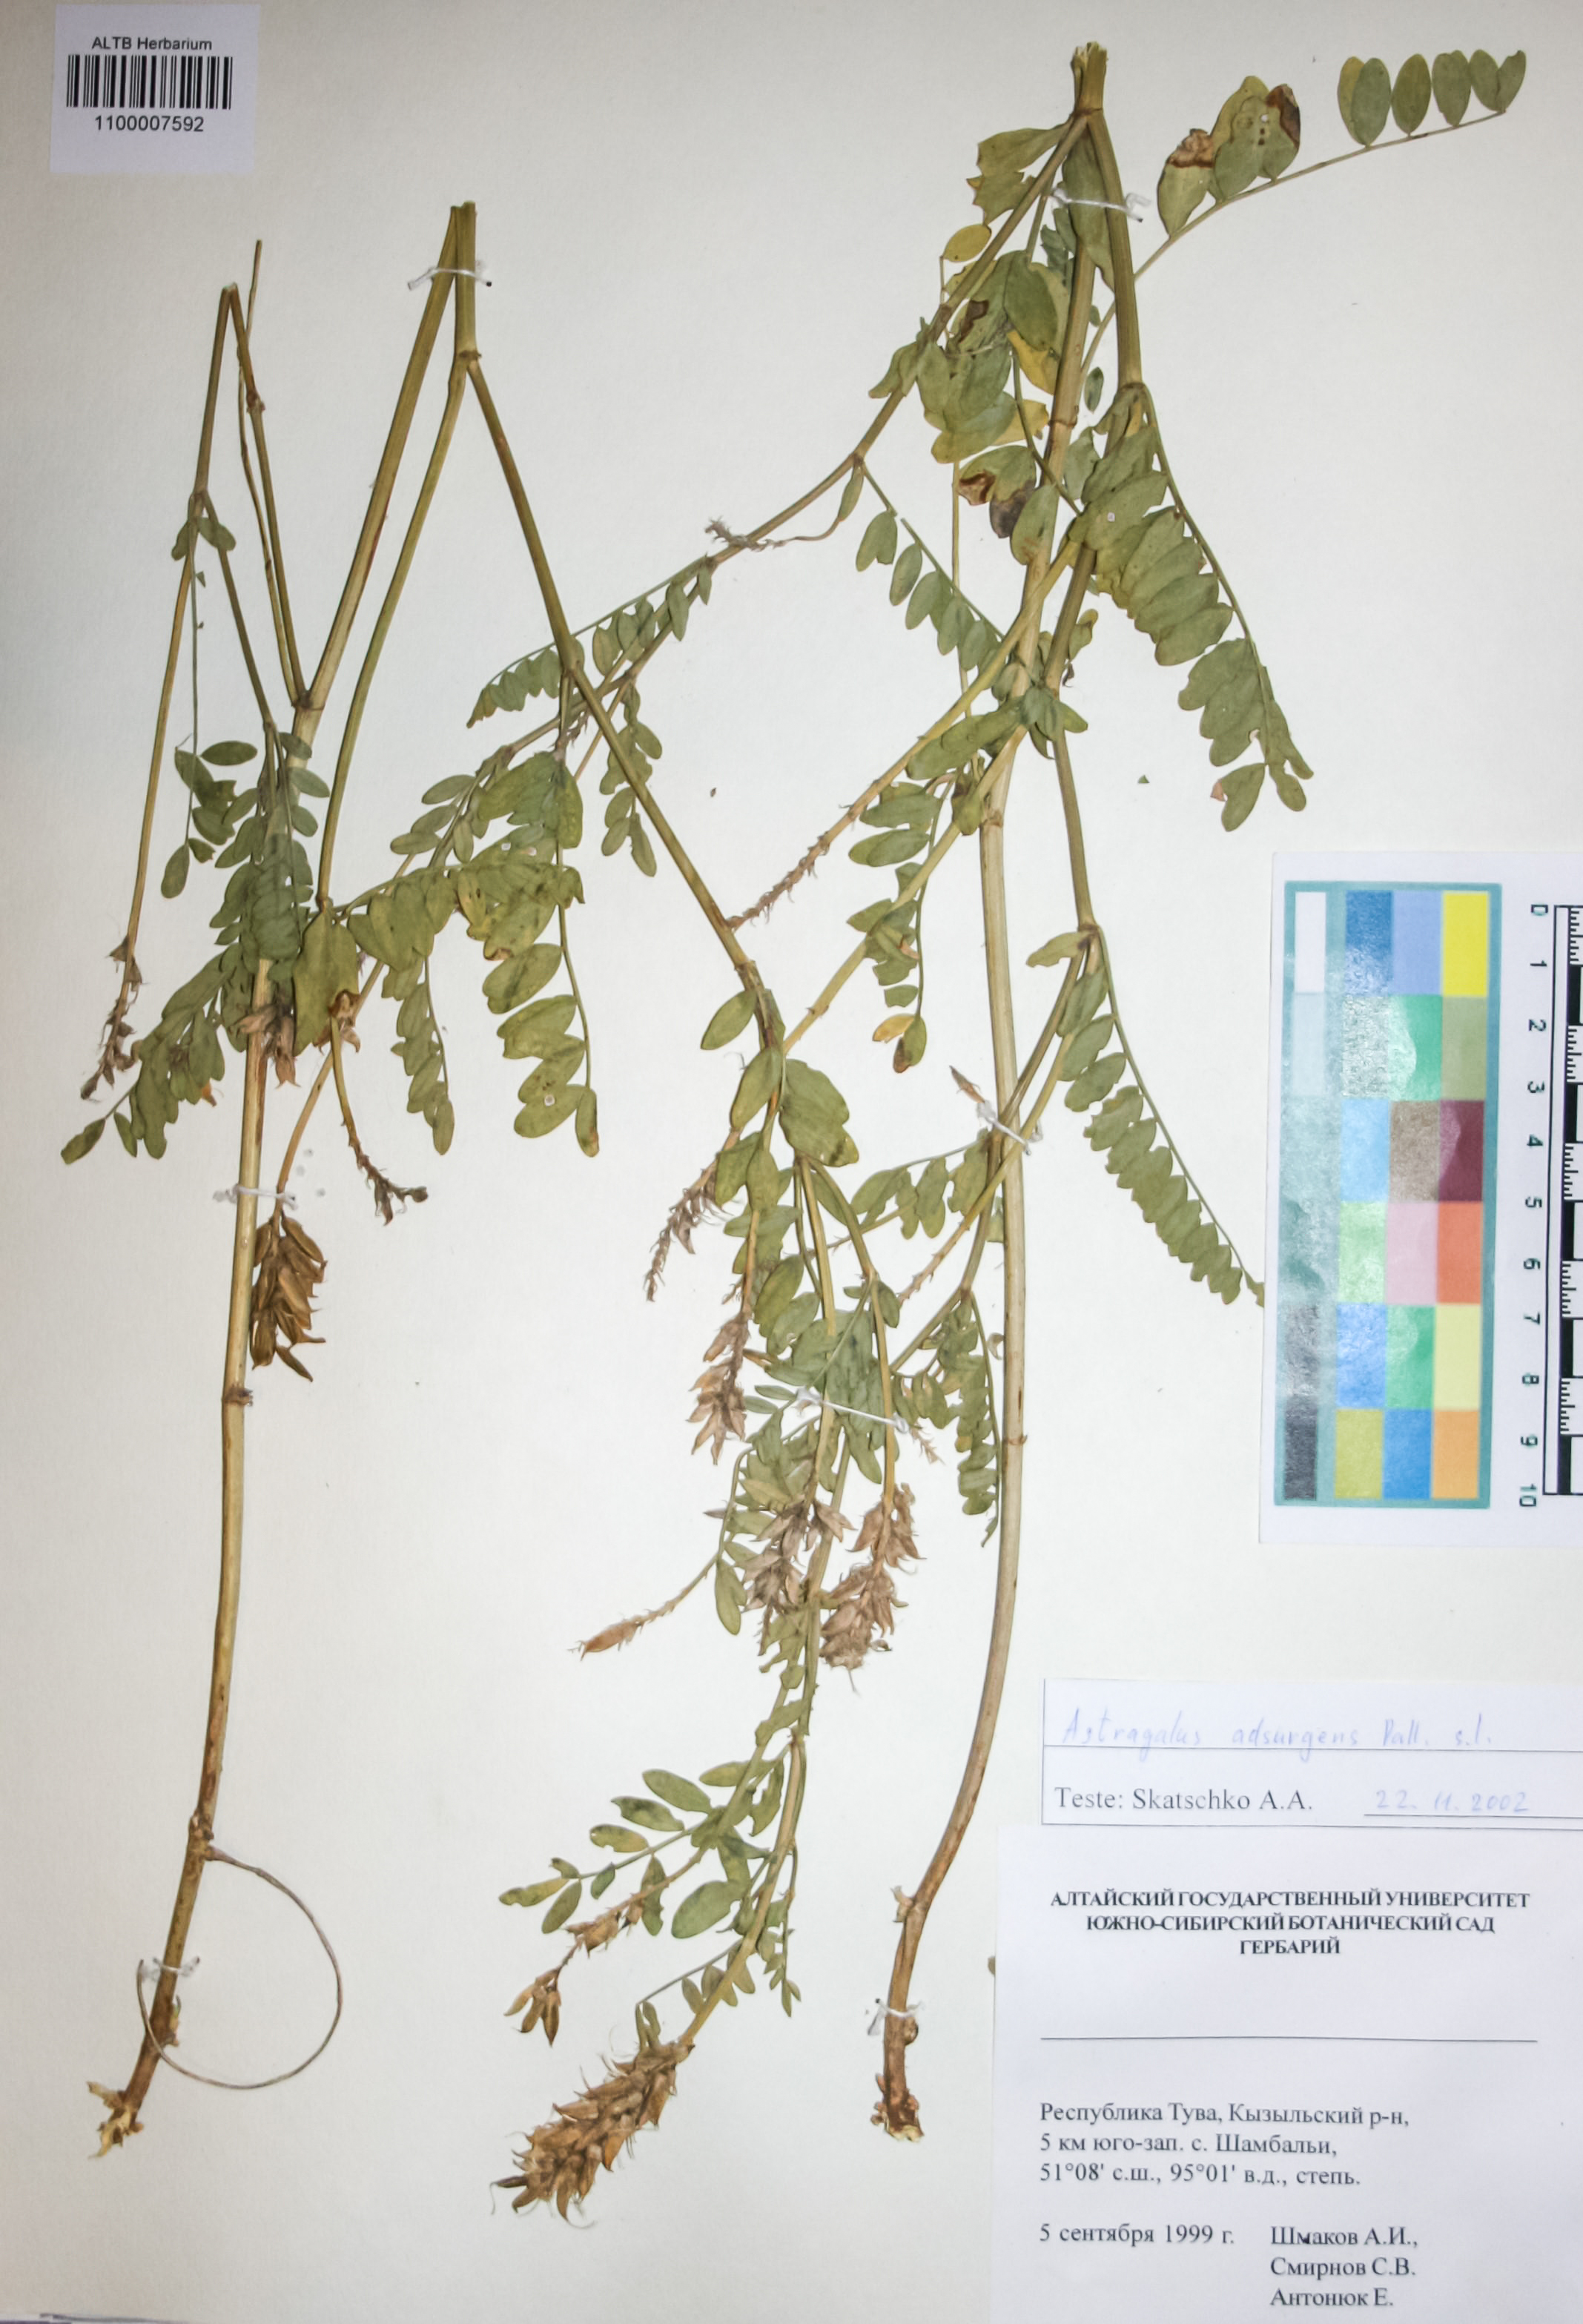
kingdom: Plantae
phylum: Tracheophyta
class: Magnoliopsida
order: Fabales
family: Fabaceae
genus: Astragalus
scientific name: Astragalus laxmannii
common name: Laxmann's milk-vetch
